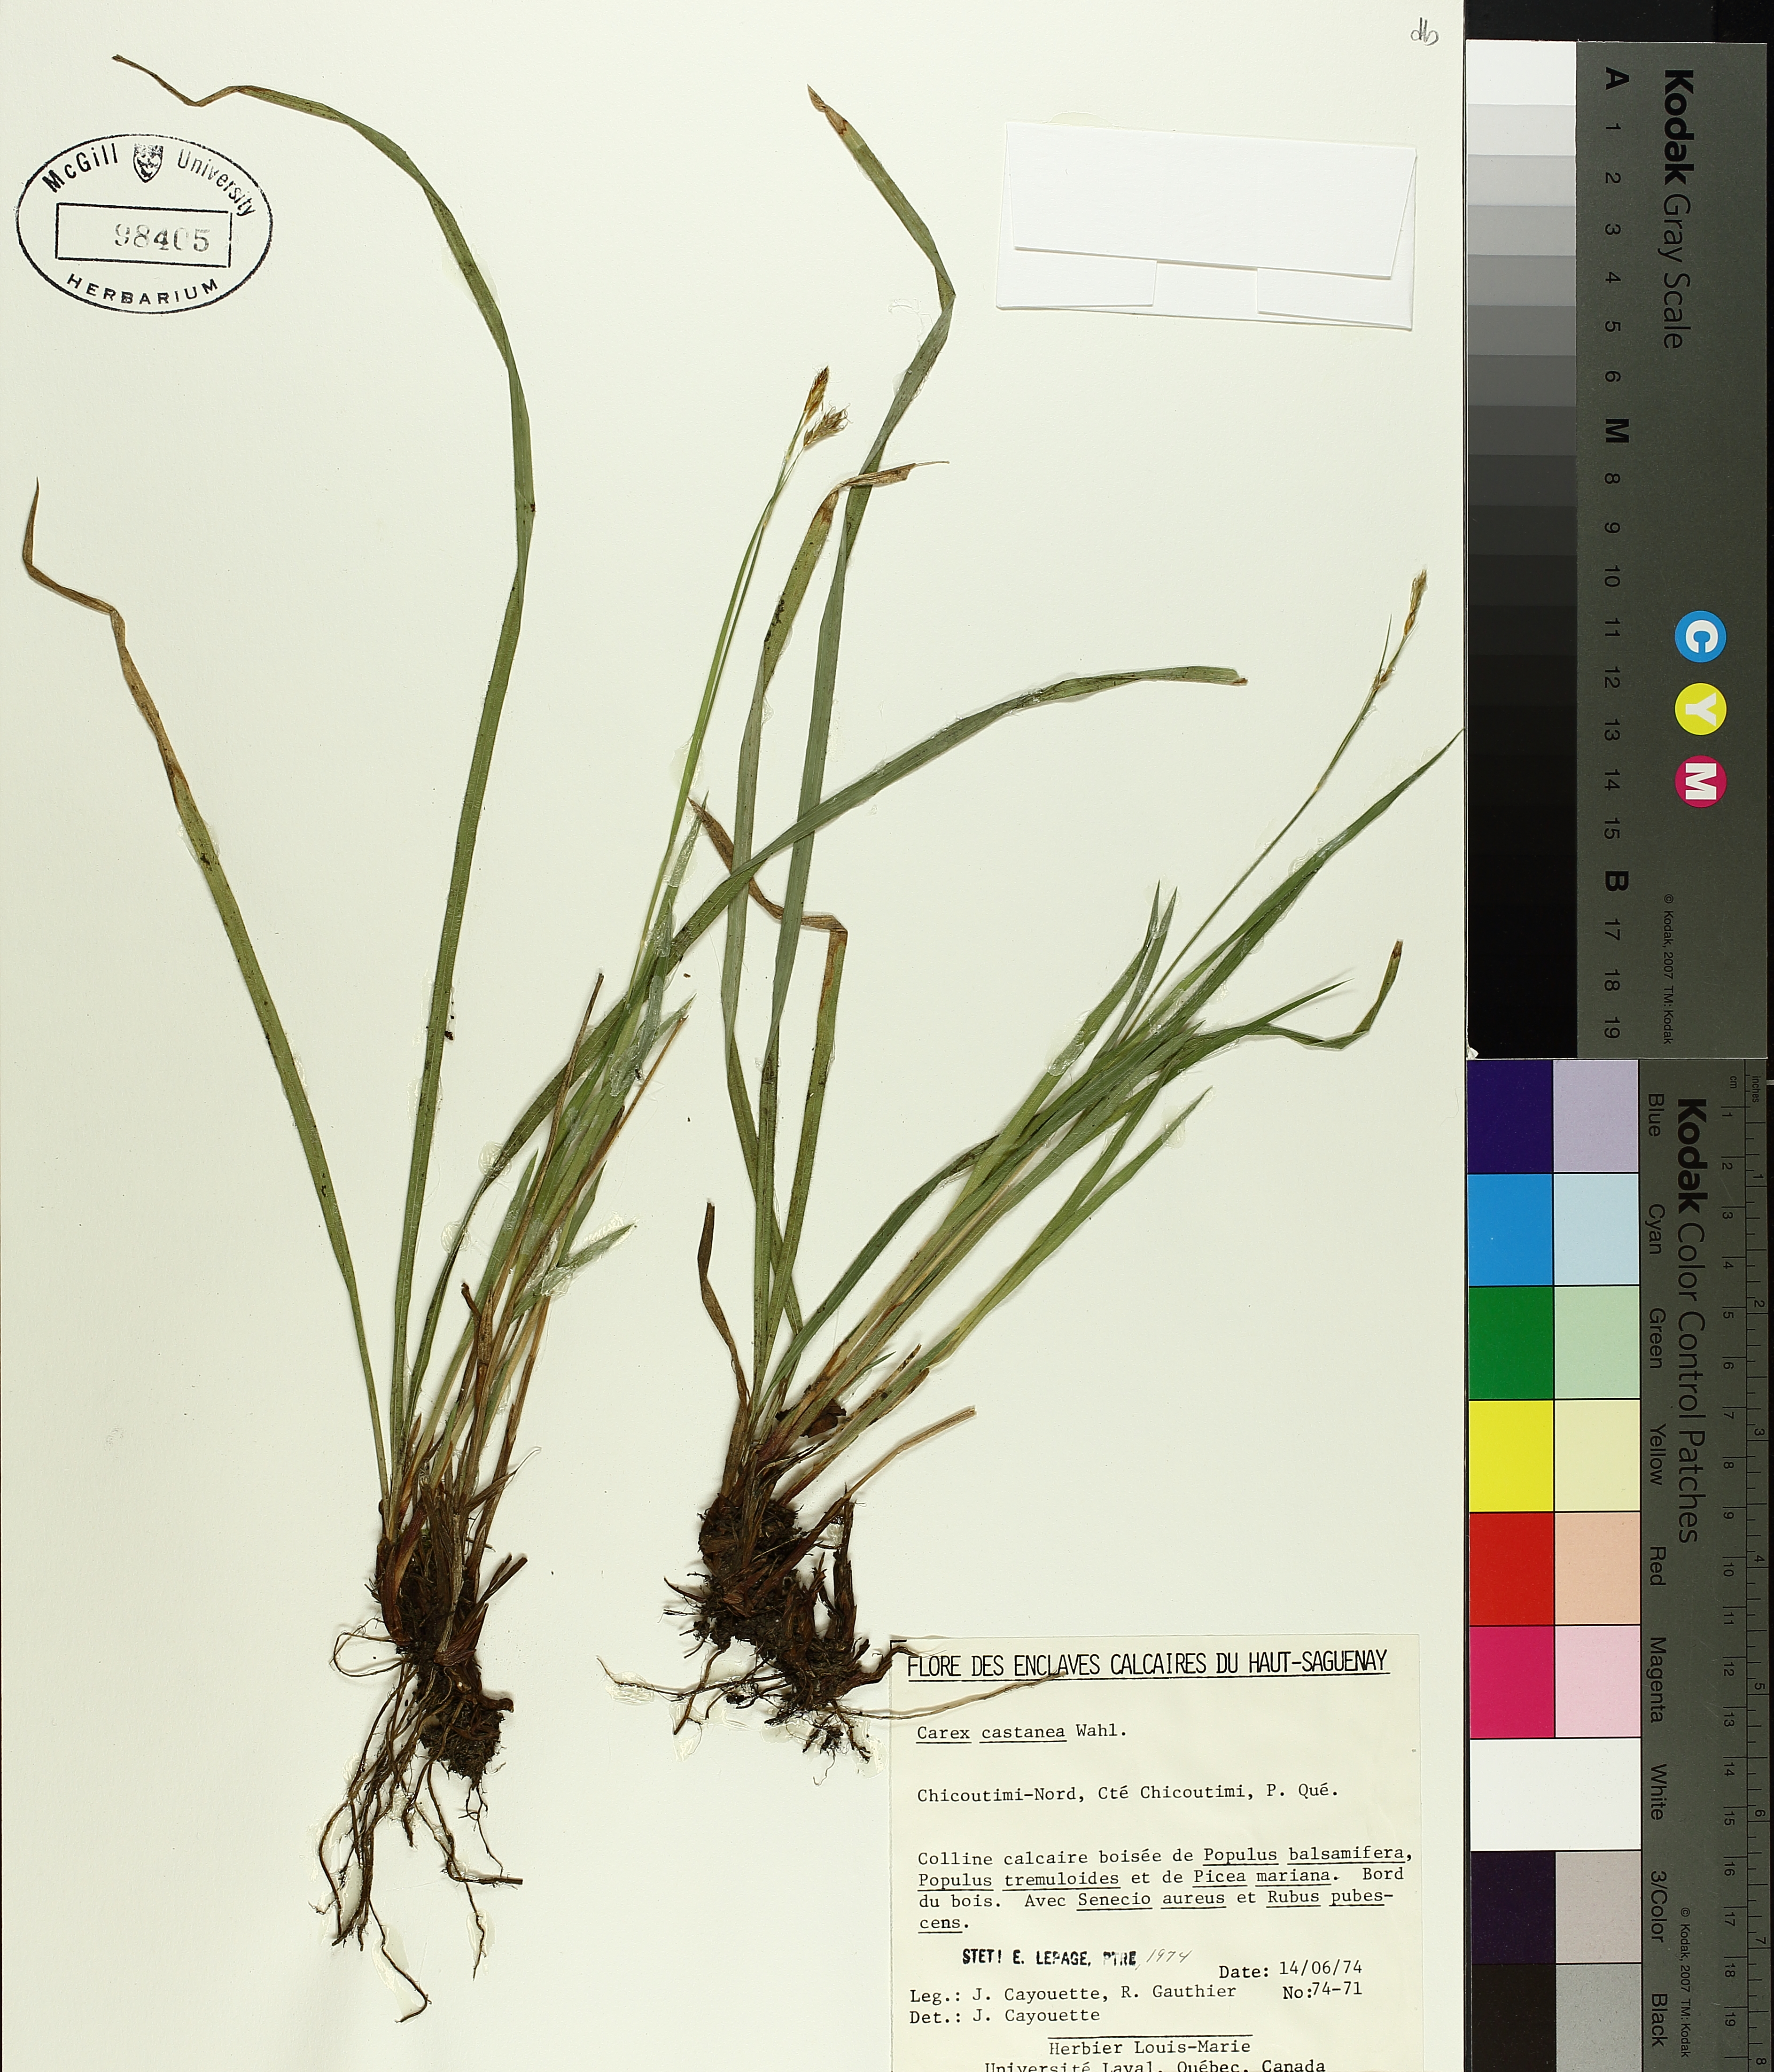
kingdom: Plantae
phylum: Tracheophyta
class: Liliopsida
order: Poales
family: Cyperaceae
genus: Carex
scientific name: Carex castanea
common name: Chestnut sedge
